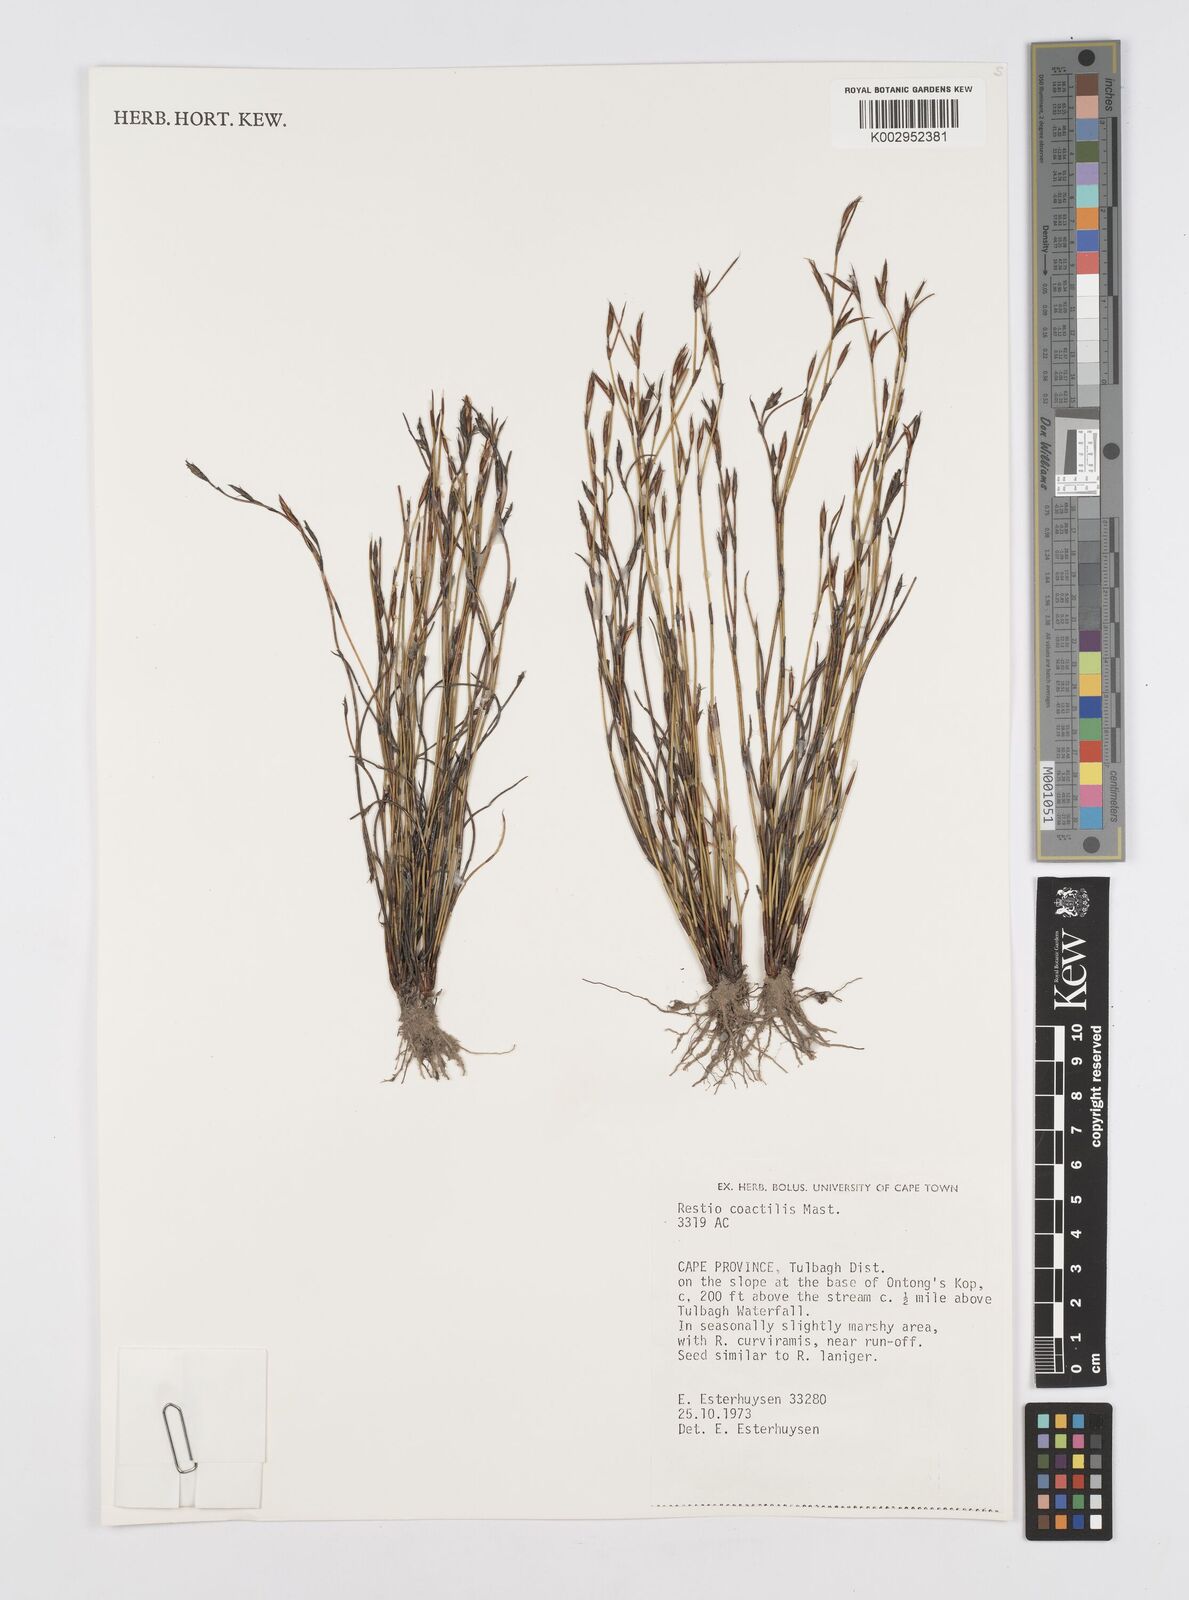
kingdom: Plantae
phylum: Tracheophyta
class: Liliopsida
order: Poales
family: Restionaceae
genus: Restio
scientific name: Restio coactilis
